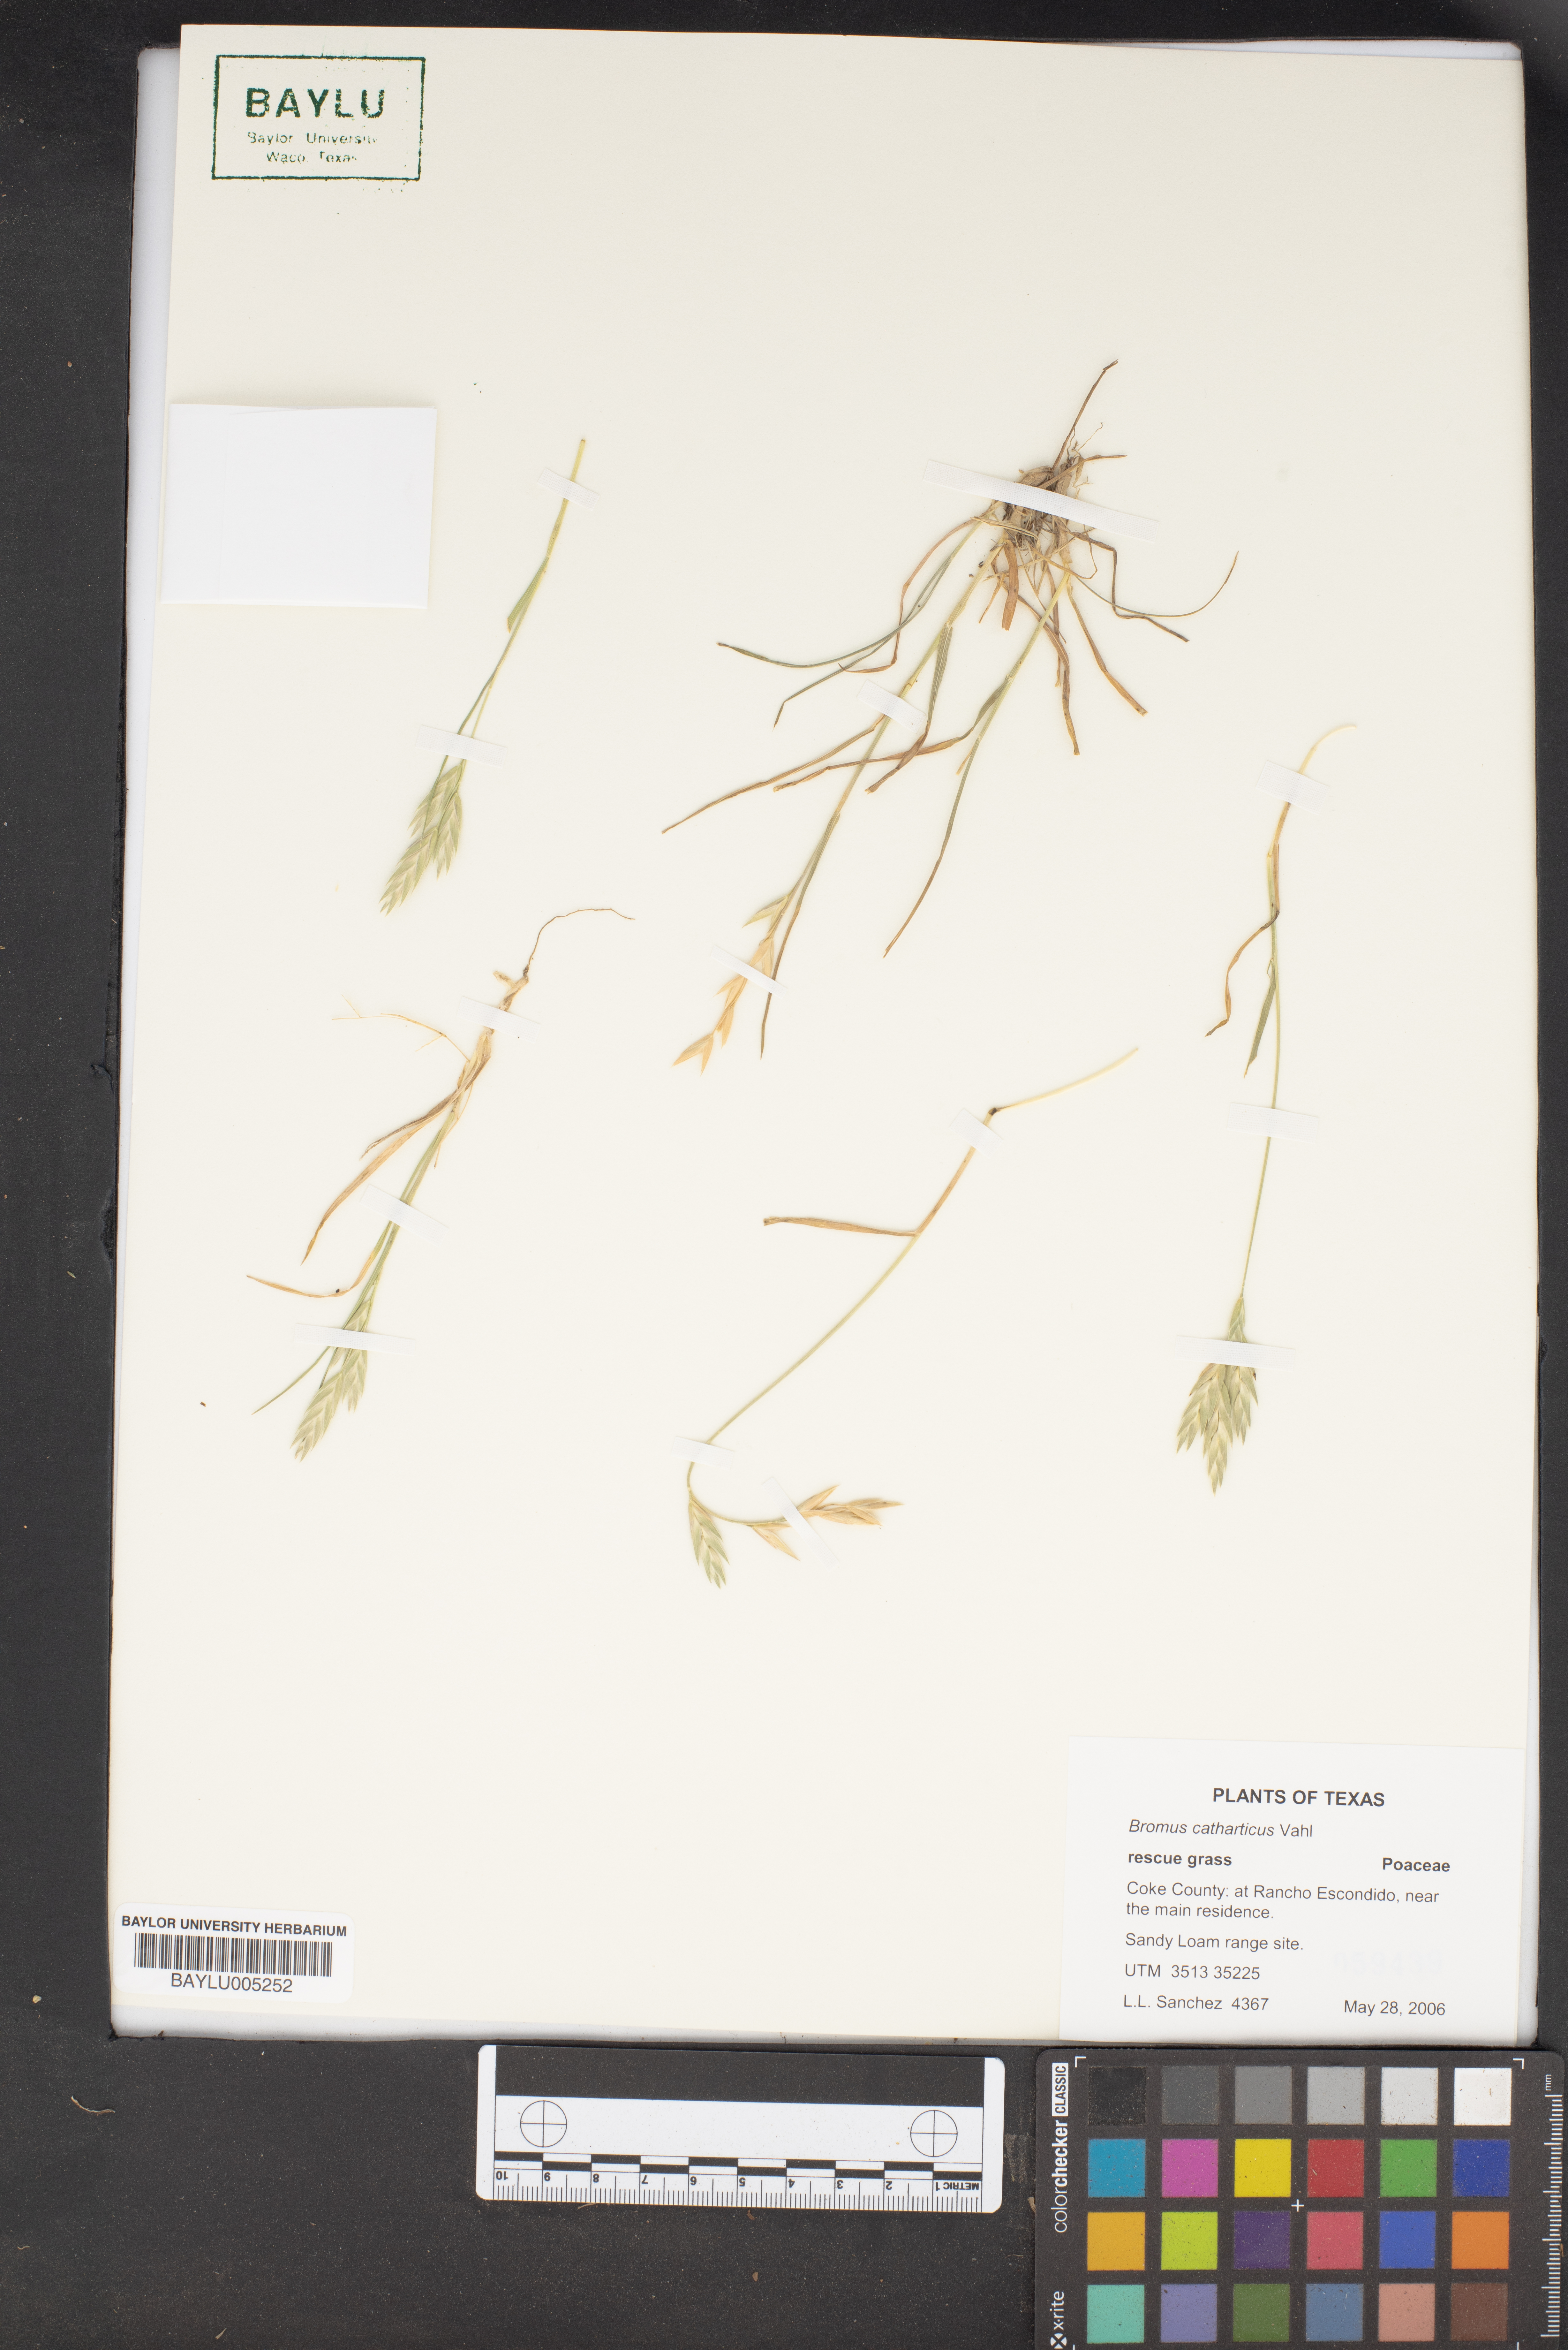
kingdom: Plantae
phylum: Tracheophyta
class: Liliopsida
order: Poales
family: Poaceae
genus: Bromus
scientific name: Bromus catharticus
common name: Rescuegrass
